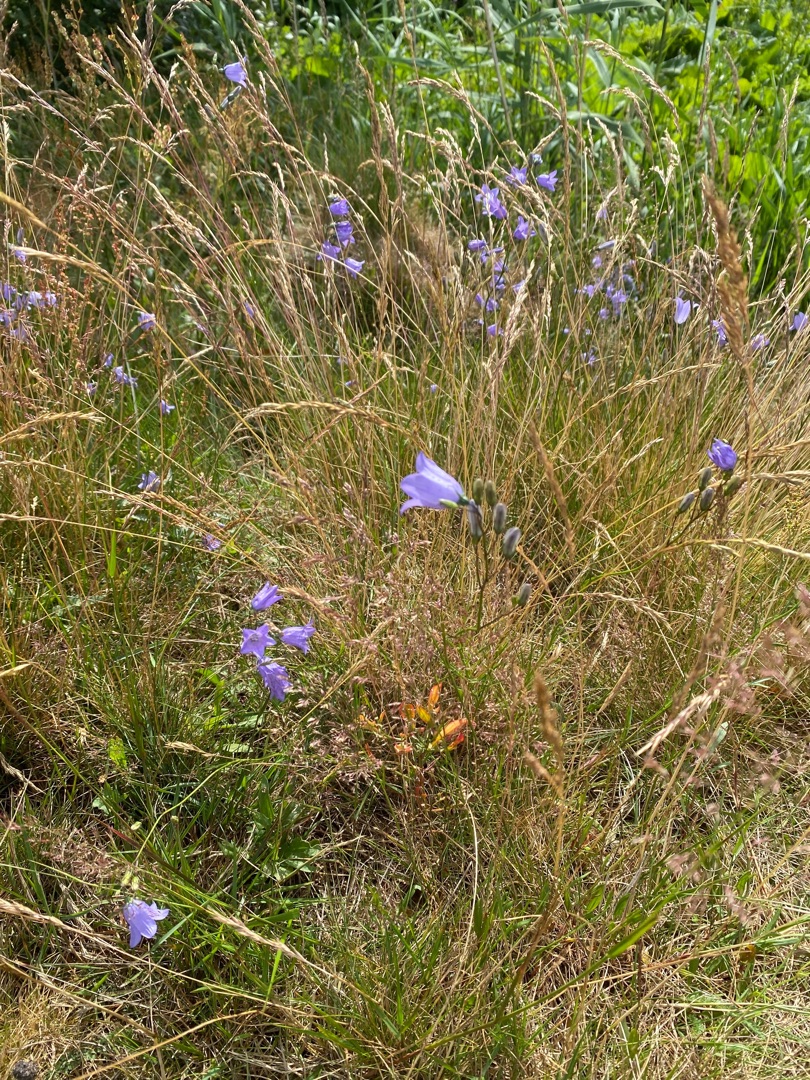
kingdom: Plantae
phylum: Tracheophyta
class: Magnoliopsida
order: Asterales
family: Campanulaceae
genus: Campanula
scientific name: Campanula rotundifolia
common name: Liden klokke
